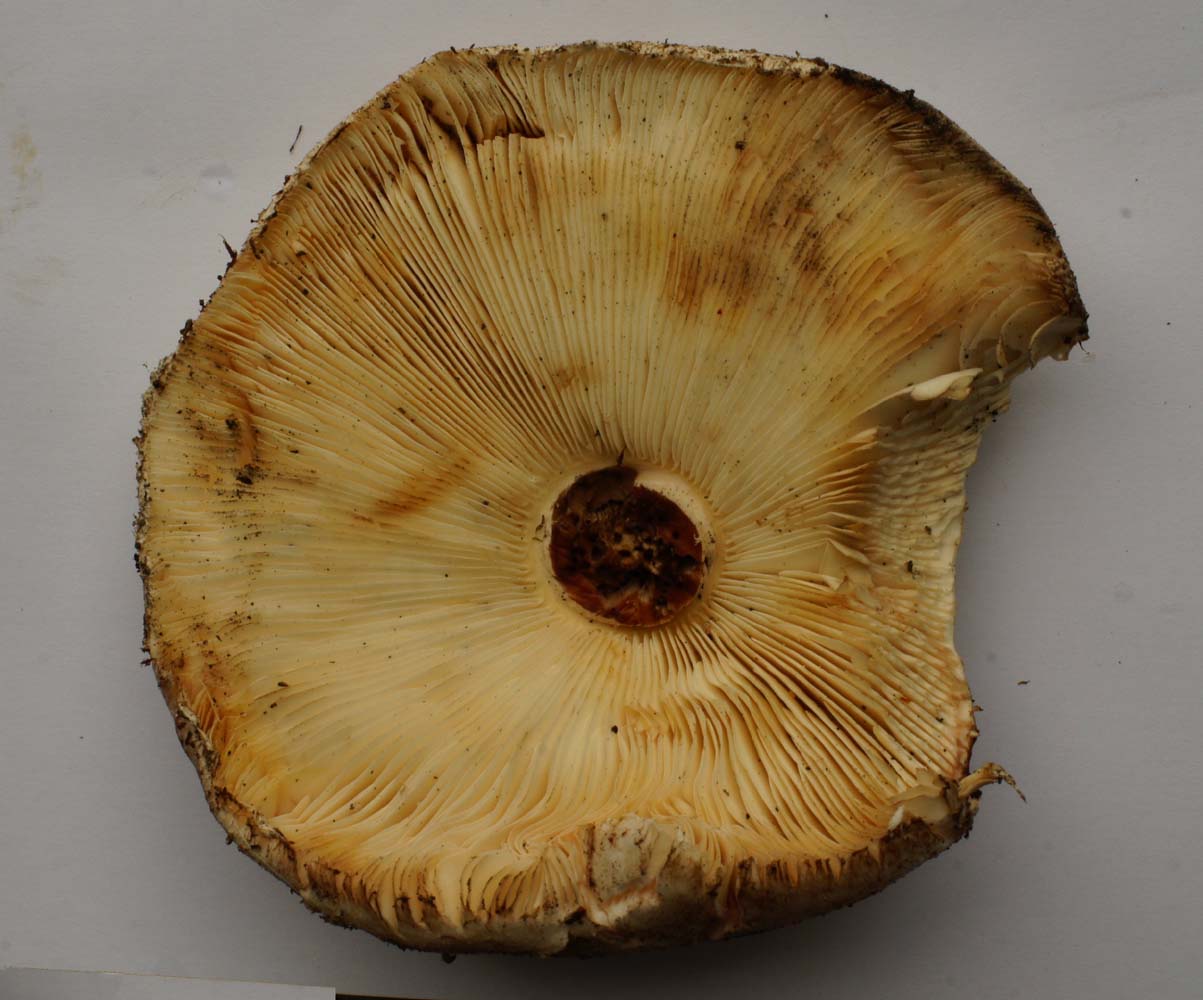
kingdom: Fungi
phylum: Basidiomycota
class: Agaricomycetes
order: Agaricales
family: Agaricaceae
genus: Chlorophyllum
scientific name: Chlorophyllum rhacodes
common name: ægte rabarberhat
